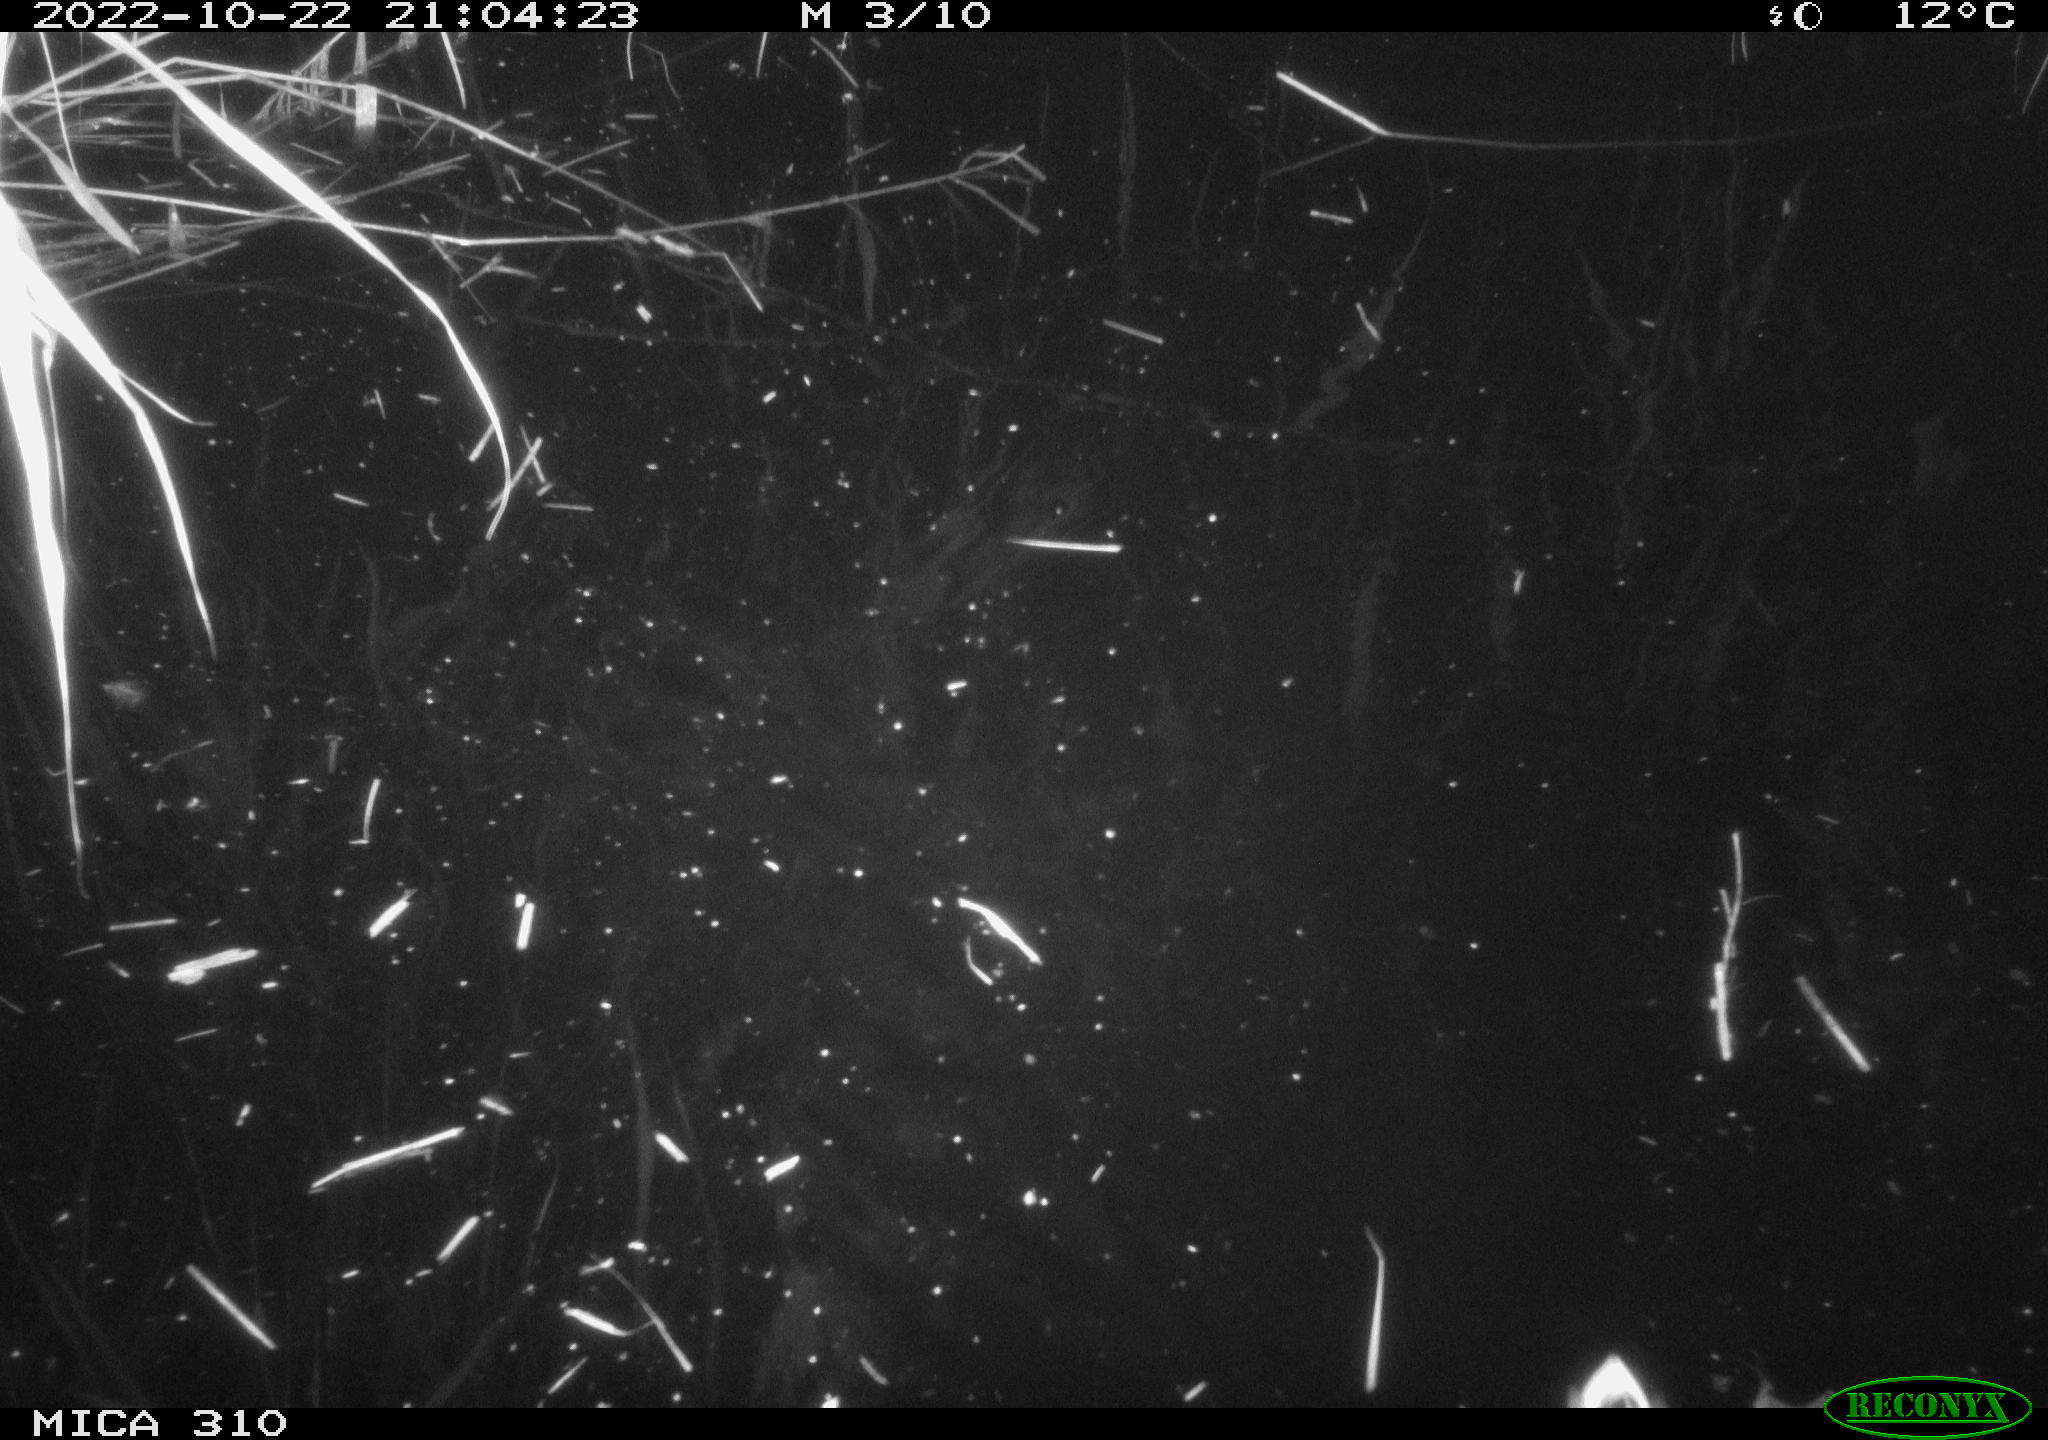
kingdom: Animalia
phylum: Chordata
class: Aves
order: Anseriformes
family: Anatidae
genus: Anas
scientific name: Anas
